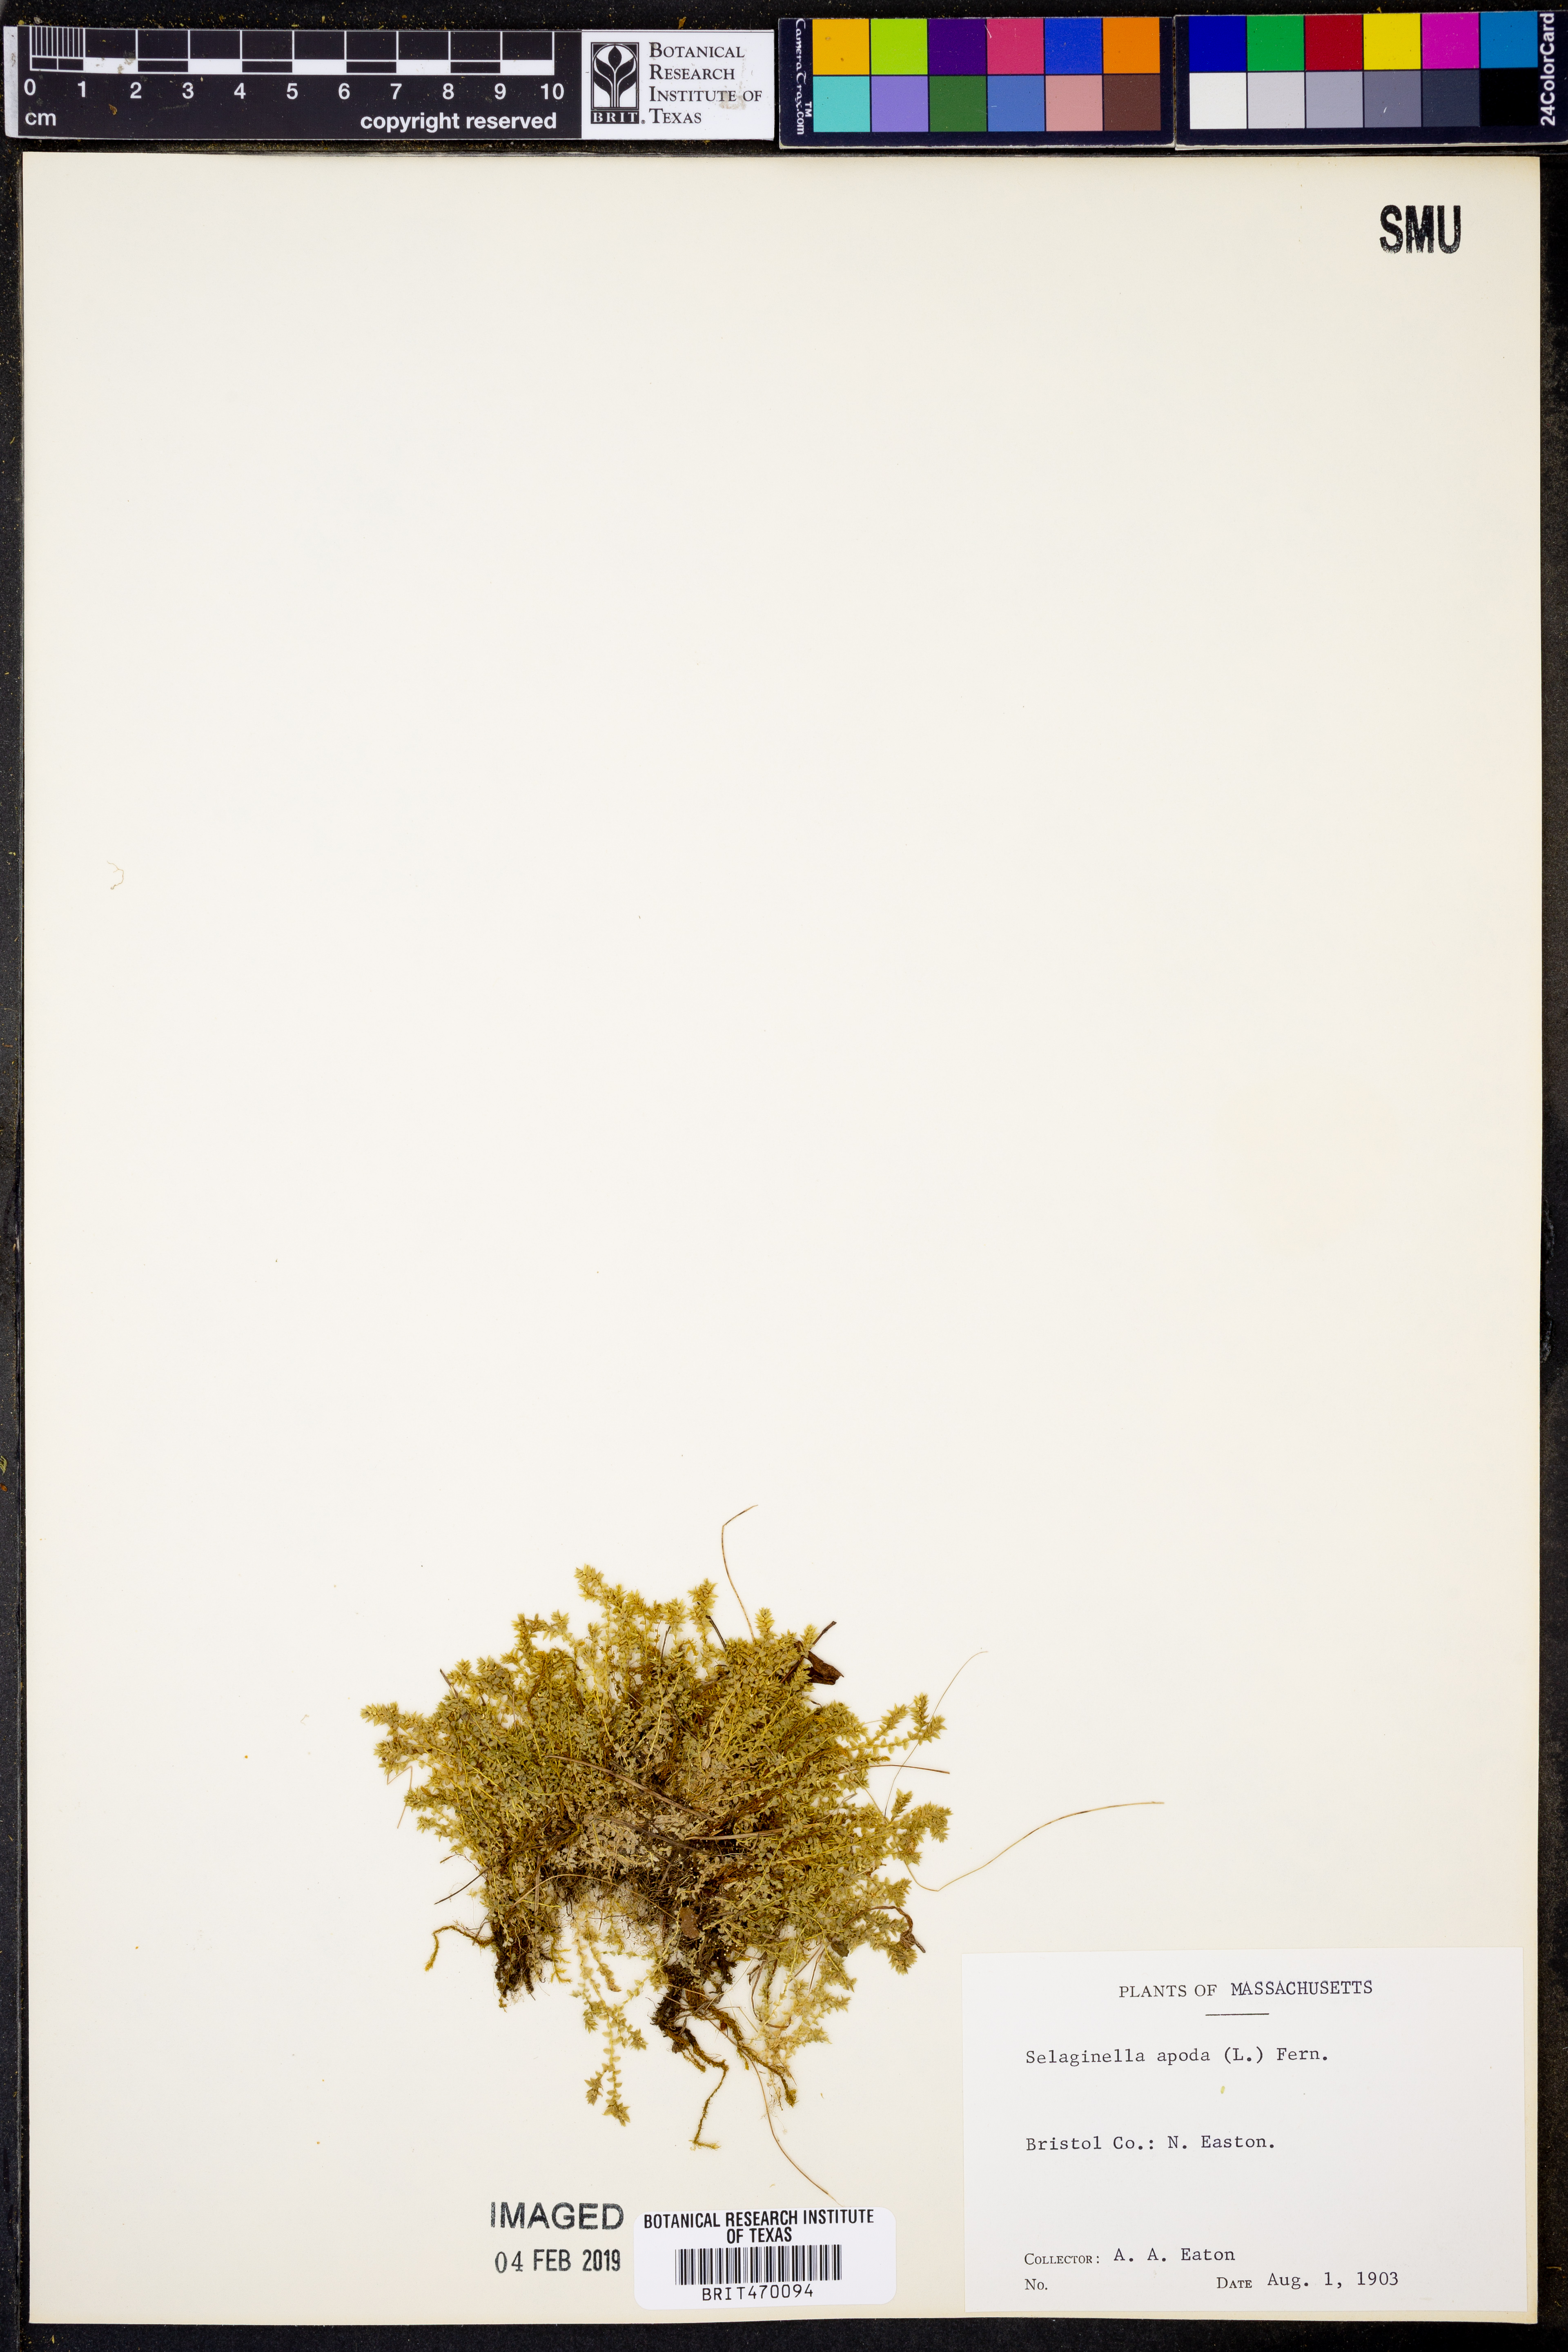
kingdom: Plantae
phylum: Tracheophyta
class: Lycopodiopsida
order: Selaginellales
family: Selaginellaceae
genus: Selaginella
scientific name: Selaginella apoda
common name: Creeping spikemoss
